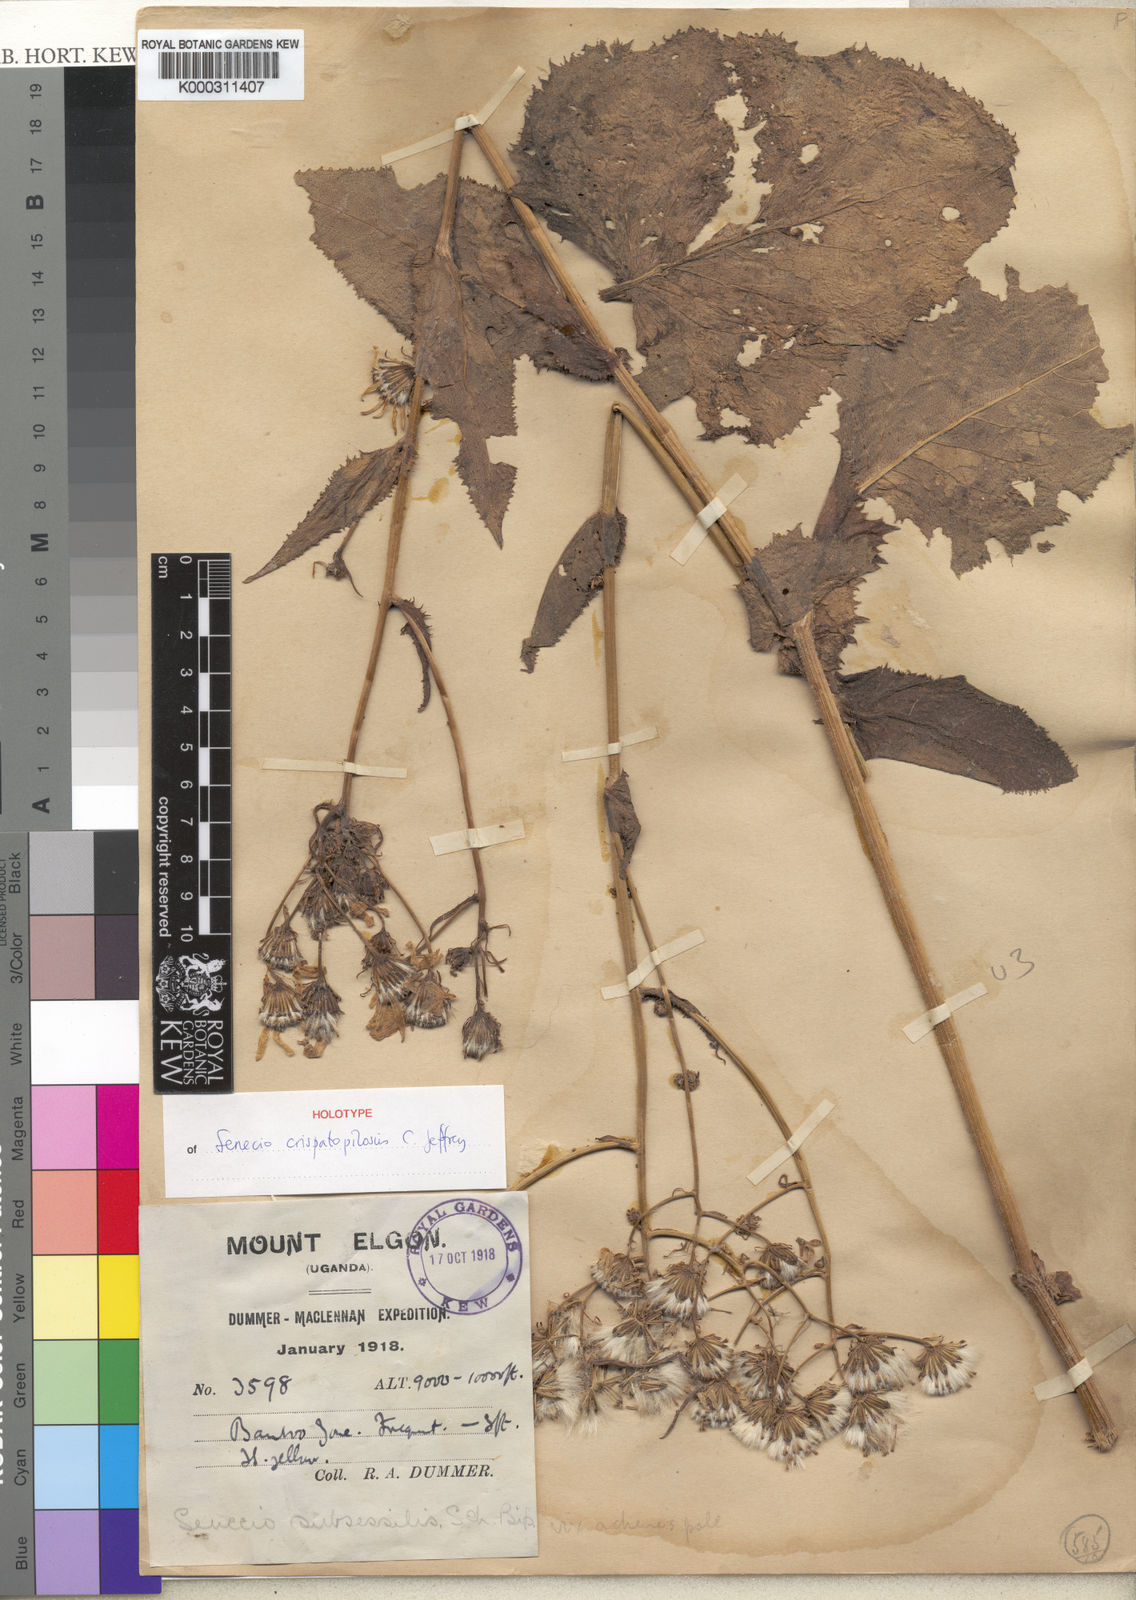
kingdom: Plantae
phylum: Tracheophyta
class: Magnoliopsida
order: Asterales
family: Asteraceae
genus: Senecio
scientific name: Senecio
